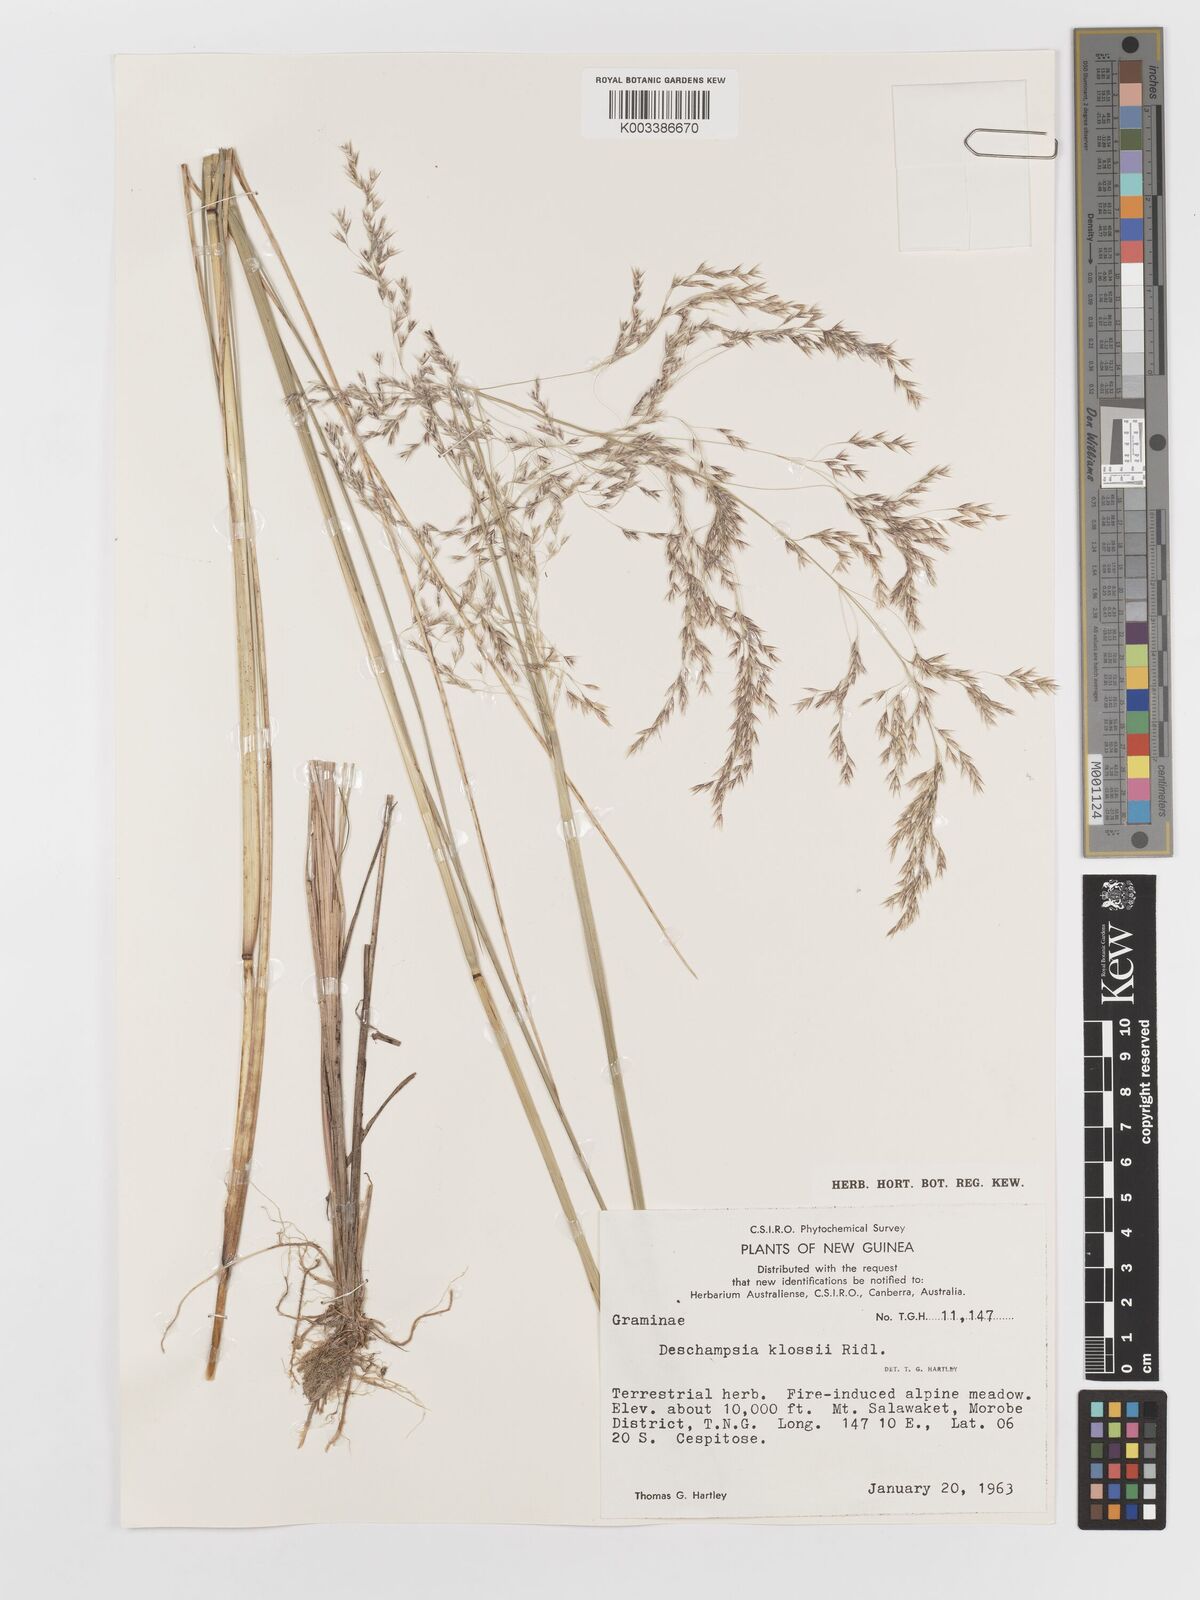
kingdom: Plantae
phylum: Tracheophyta
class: Liliopsida
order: Poales
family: Poaceae
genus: Deschampsia
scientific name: Deschampsia klossii
